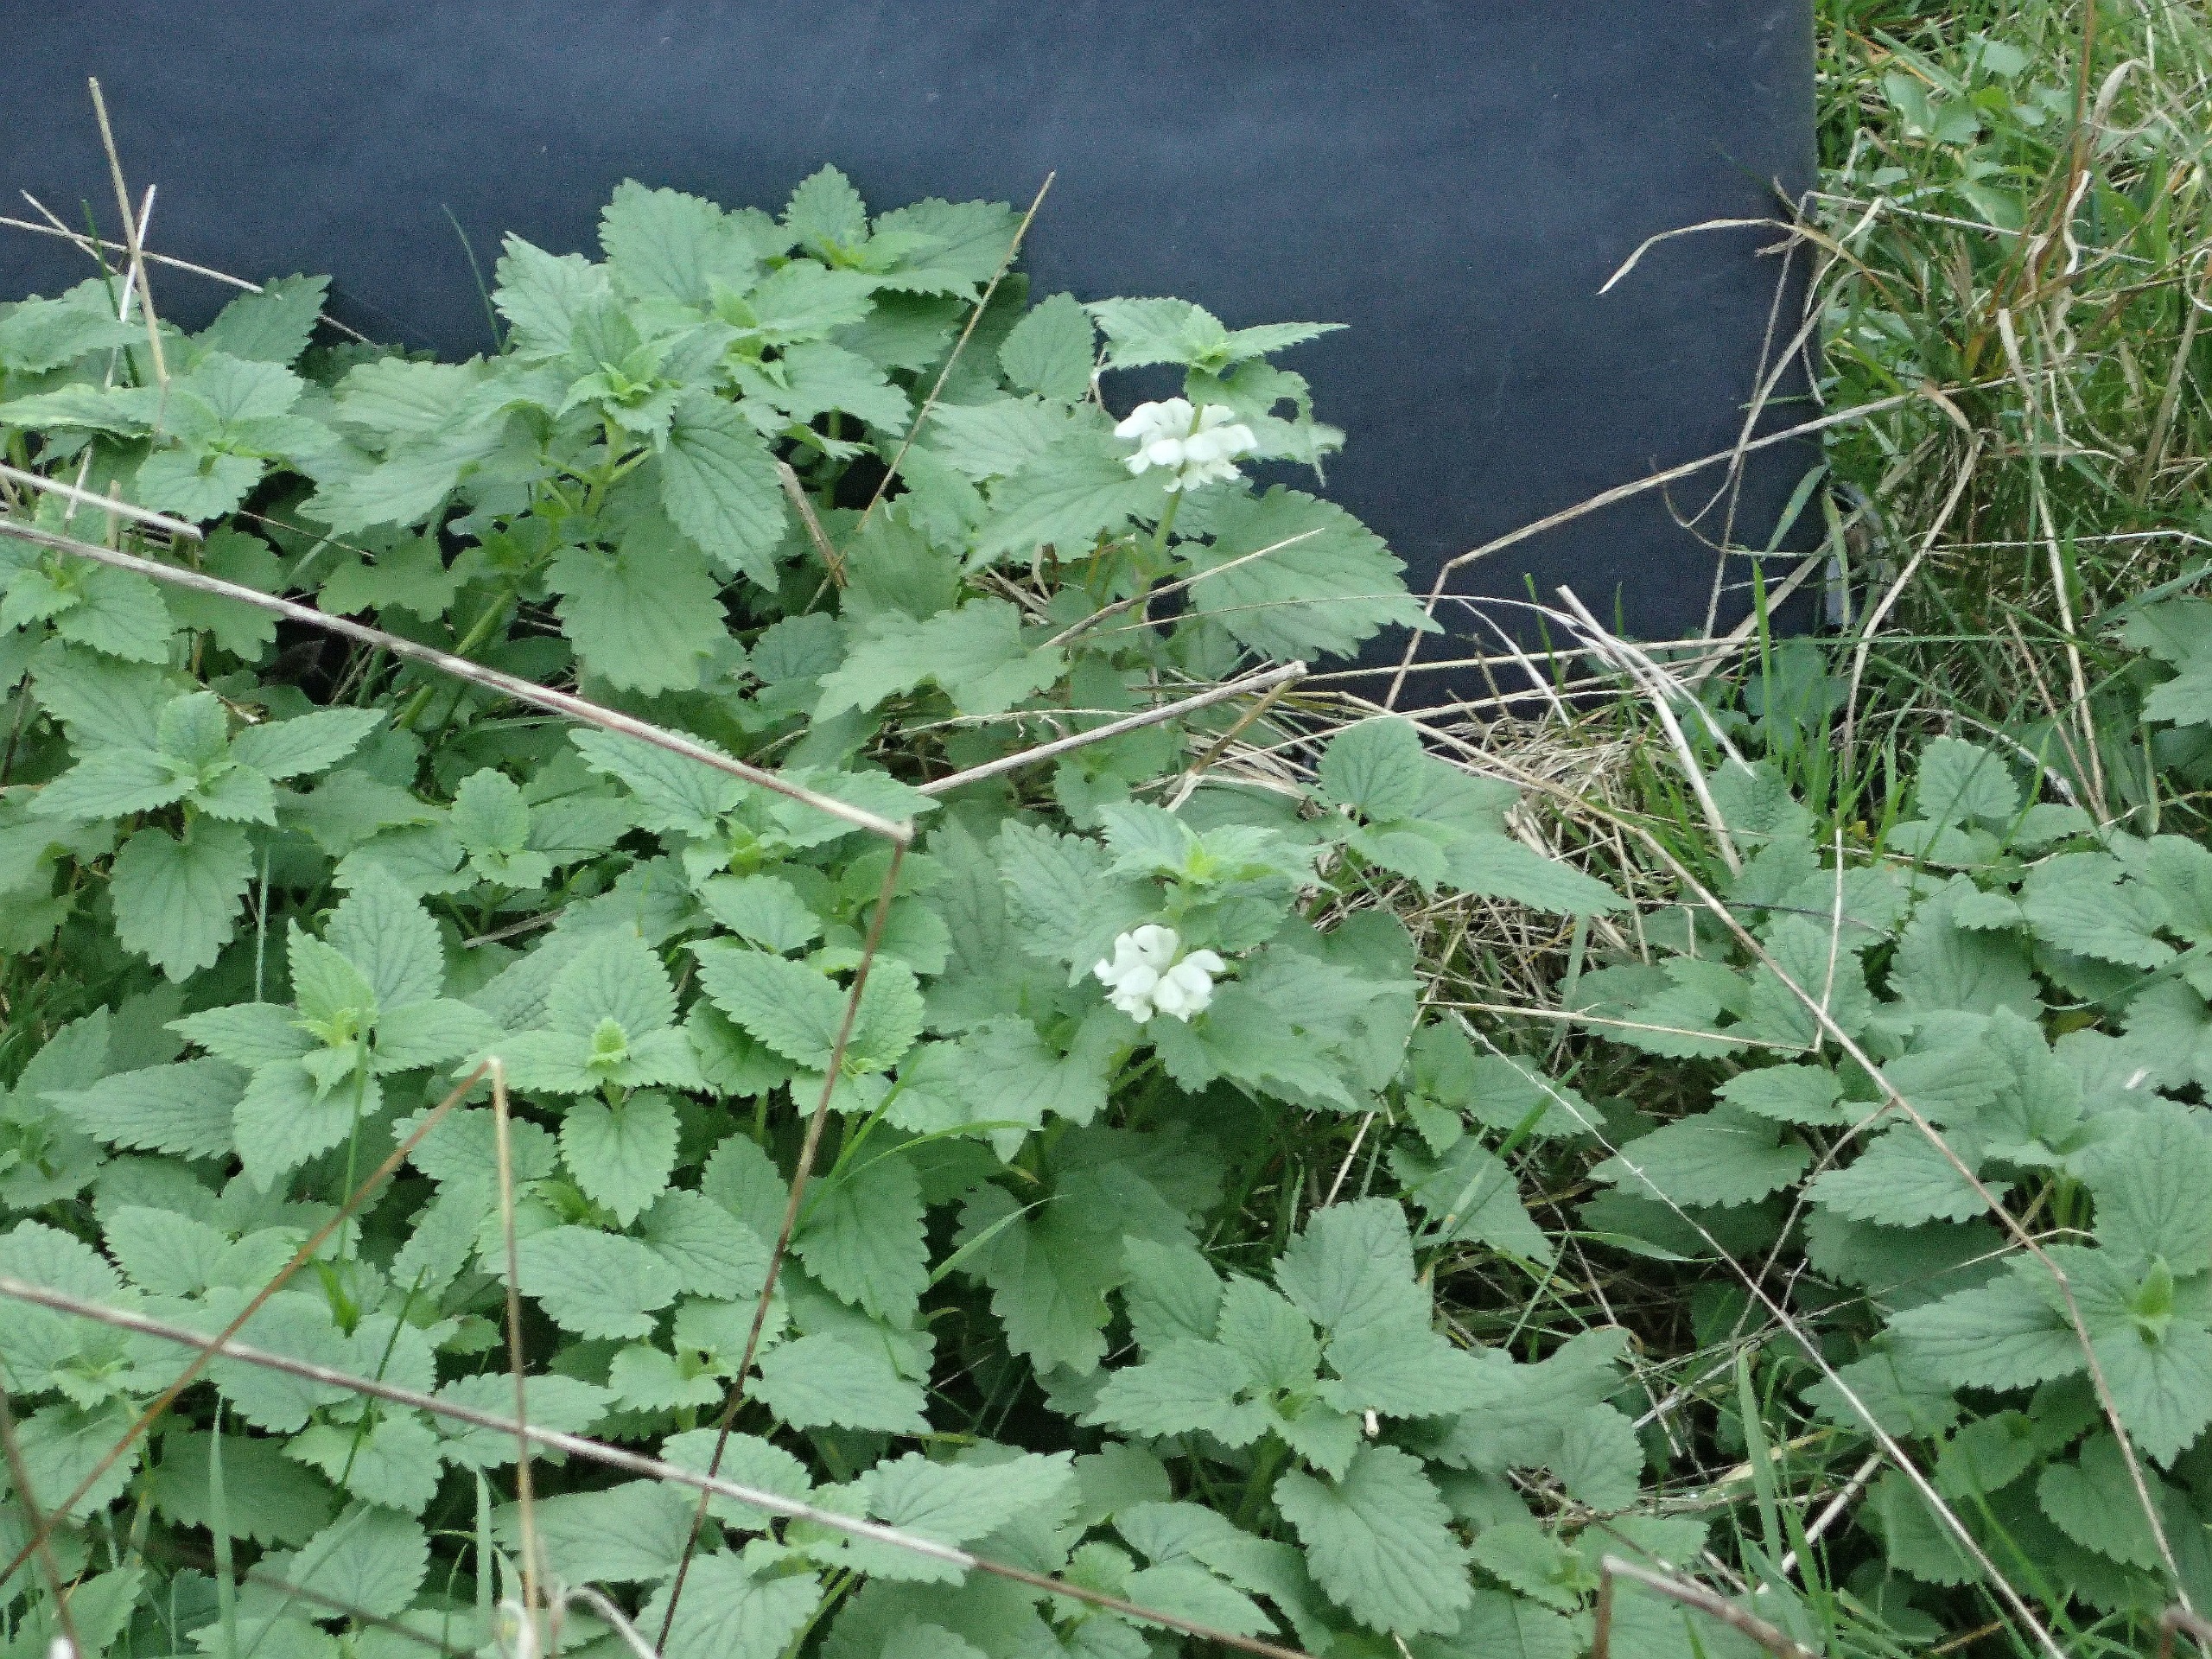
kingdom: Plantae
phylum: Tracheophyta
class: Magnoliopsida
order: Lamiales
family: Lamiaceae
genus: Lamium
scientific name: Lamium album
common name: Døvnælde
